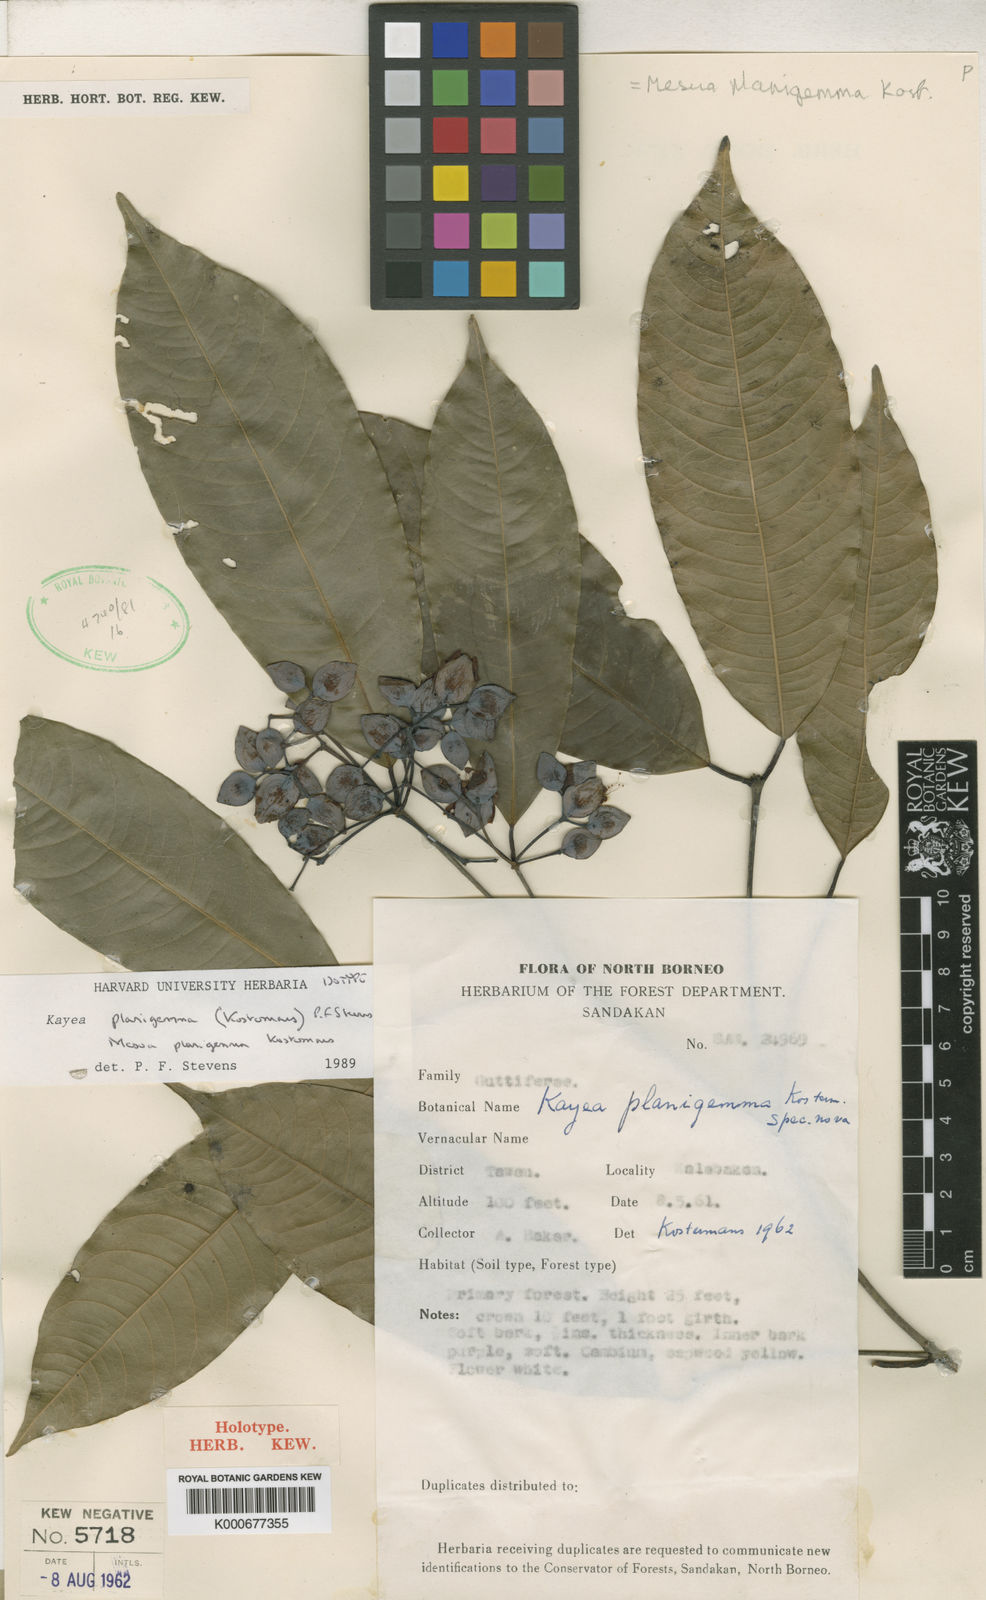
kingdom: Plantae
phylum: Tracheophyta
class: Magnoliopsida
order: Malpighiales
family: Calophyllaceae
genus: Kayea
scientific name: Kayea
